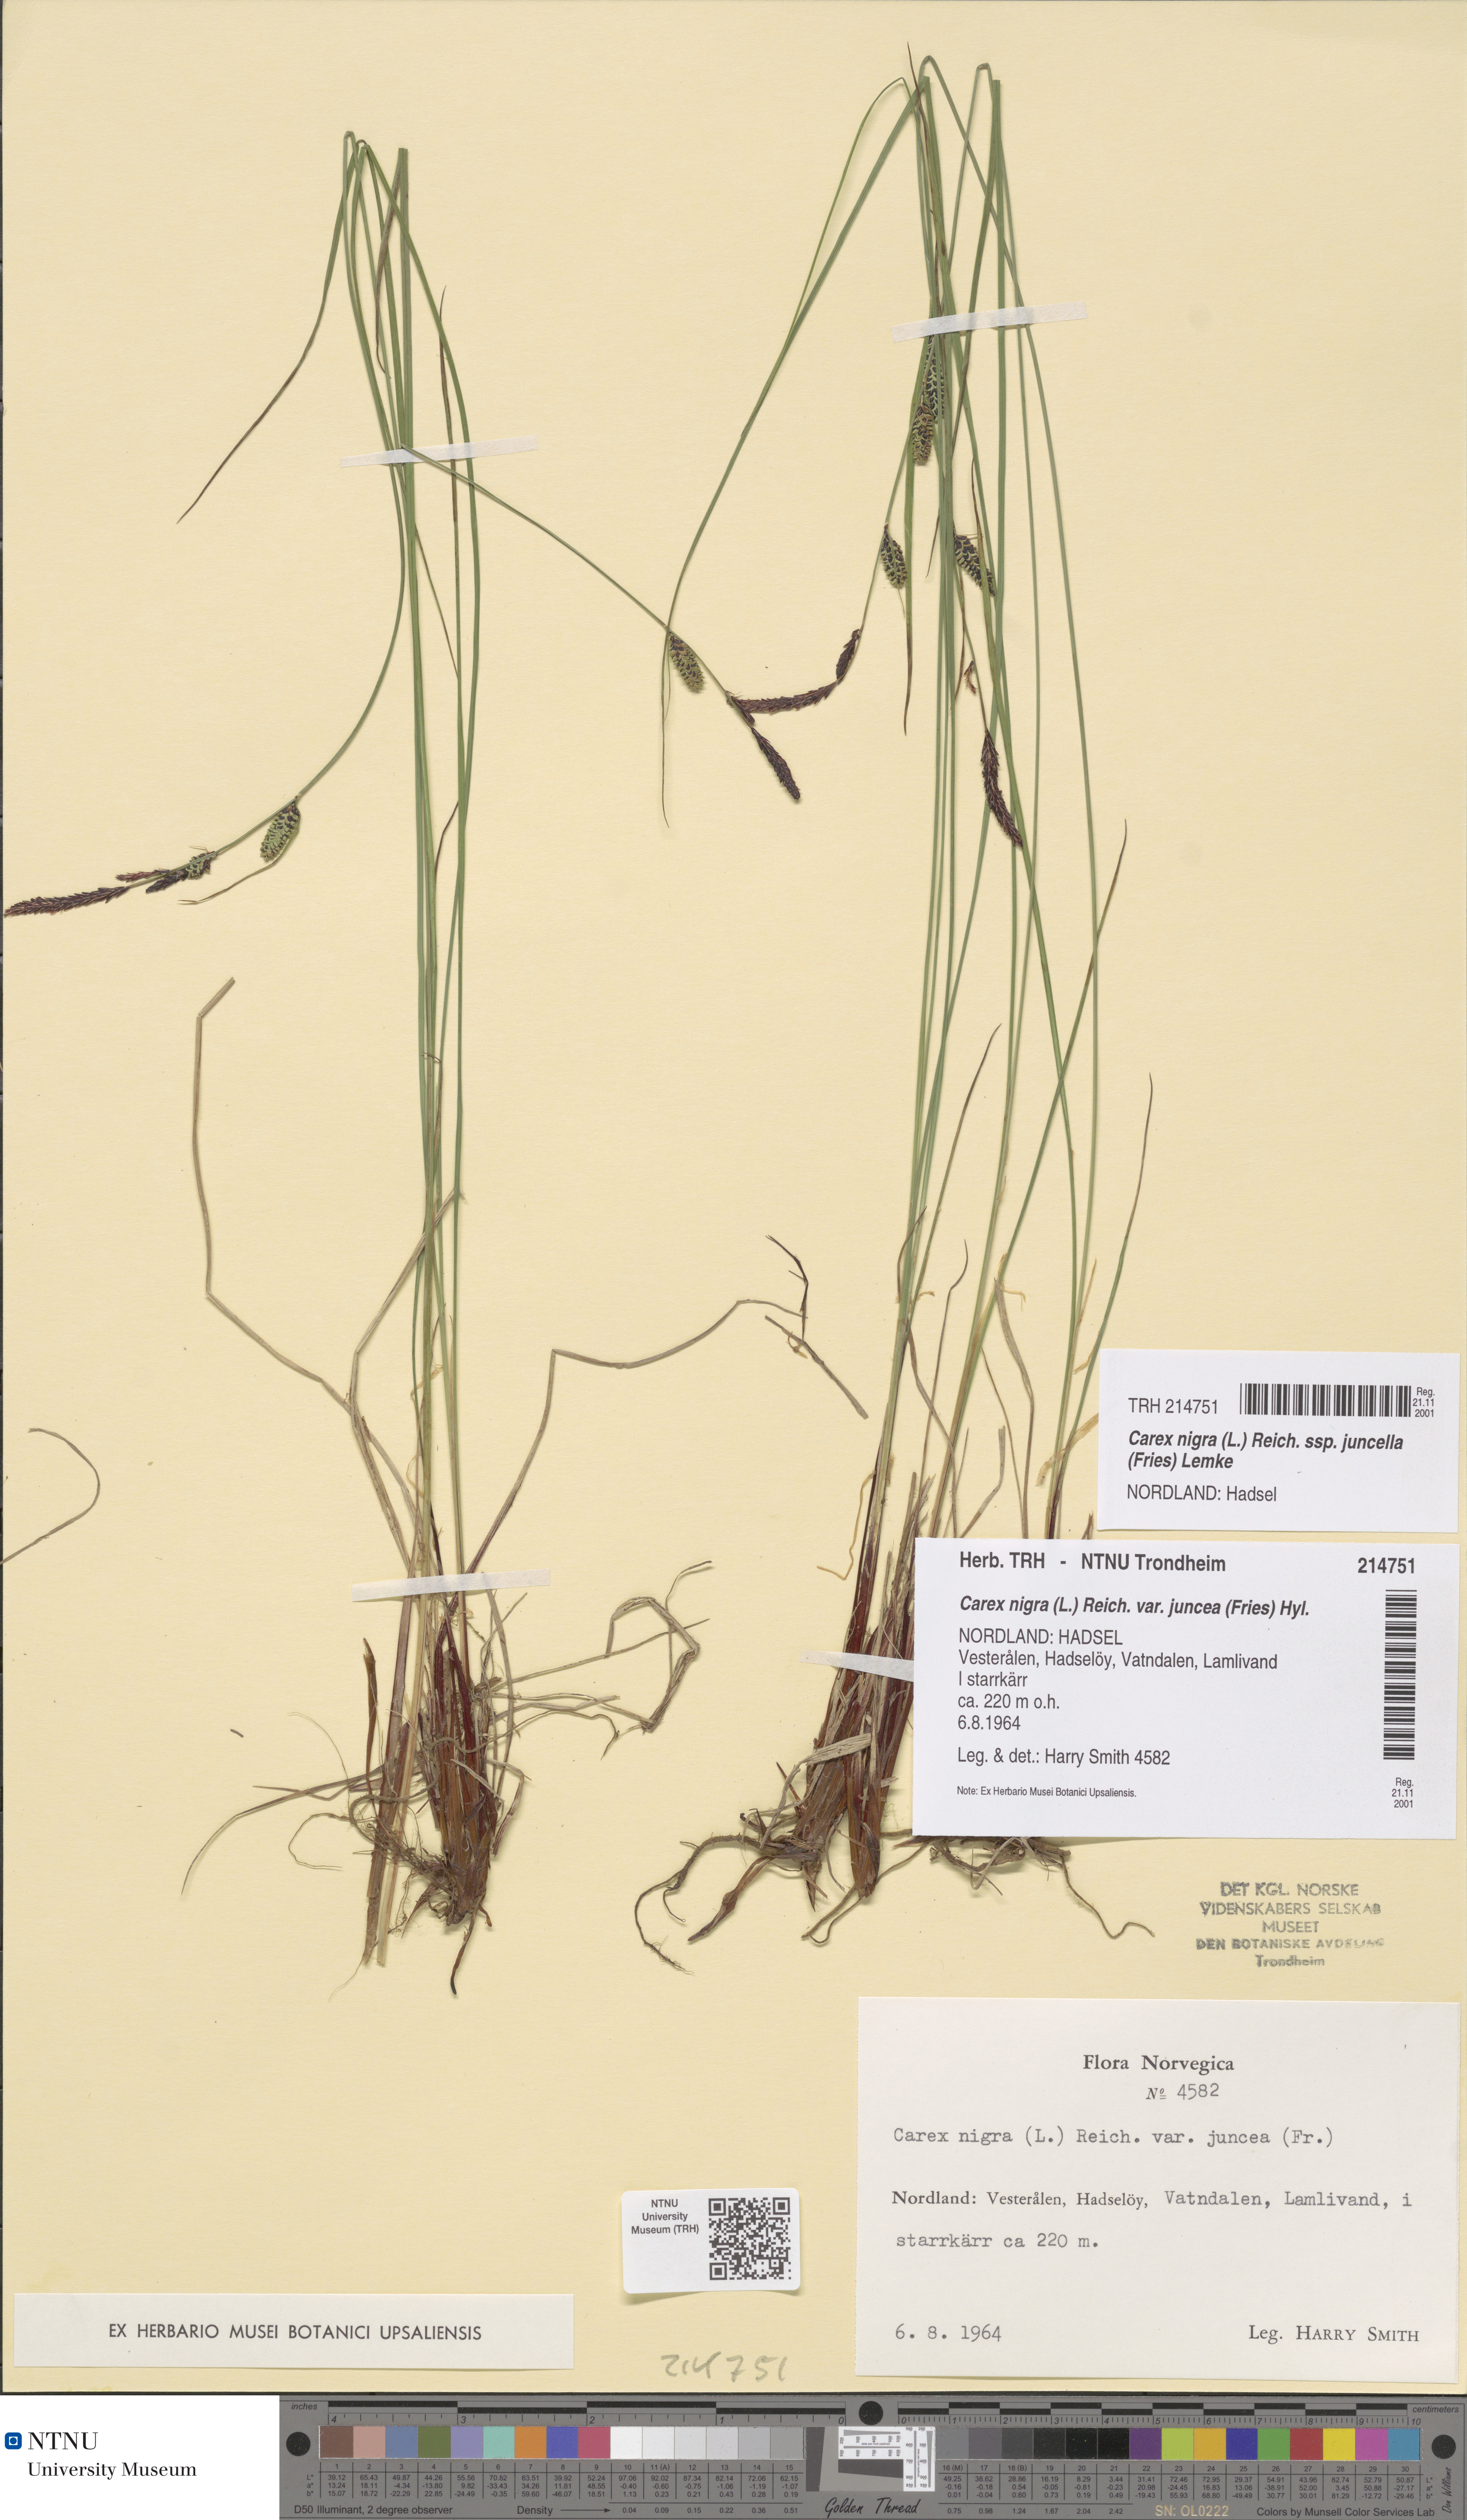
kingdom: Plantae
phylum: Tracheophyta
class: Liliopsida
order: Poales
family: Cyperaceae
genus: Carex
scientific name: Carex nigra
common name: Common sedge
